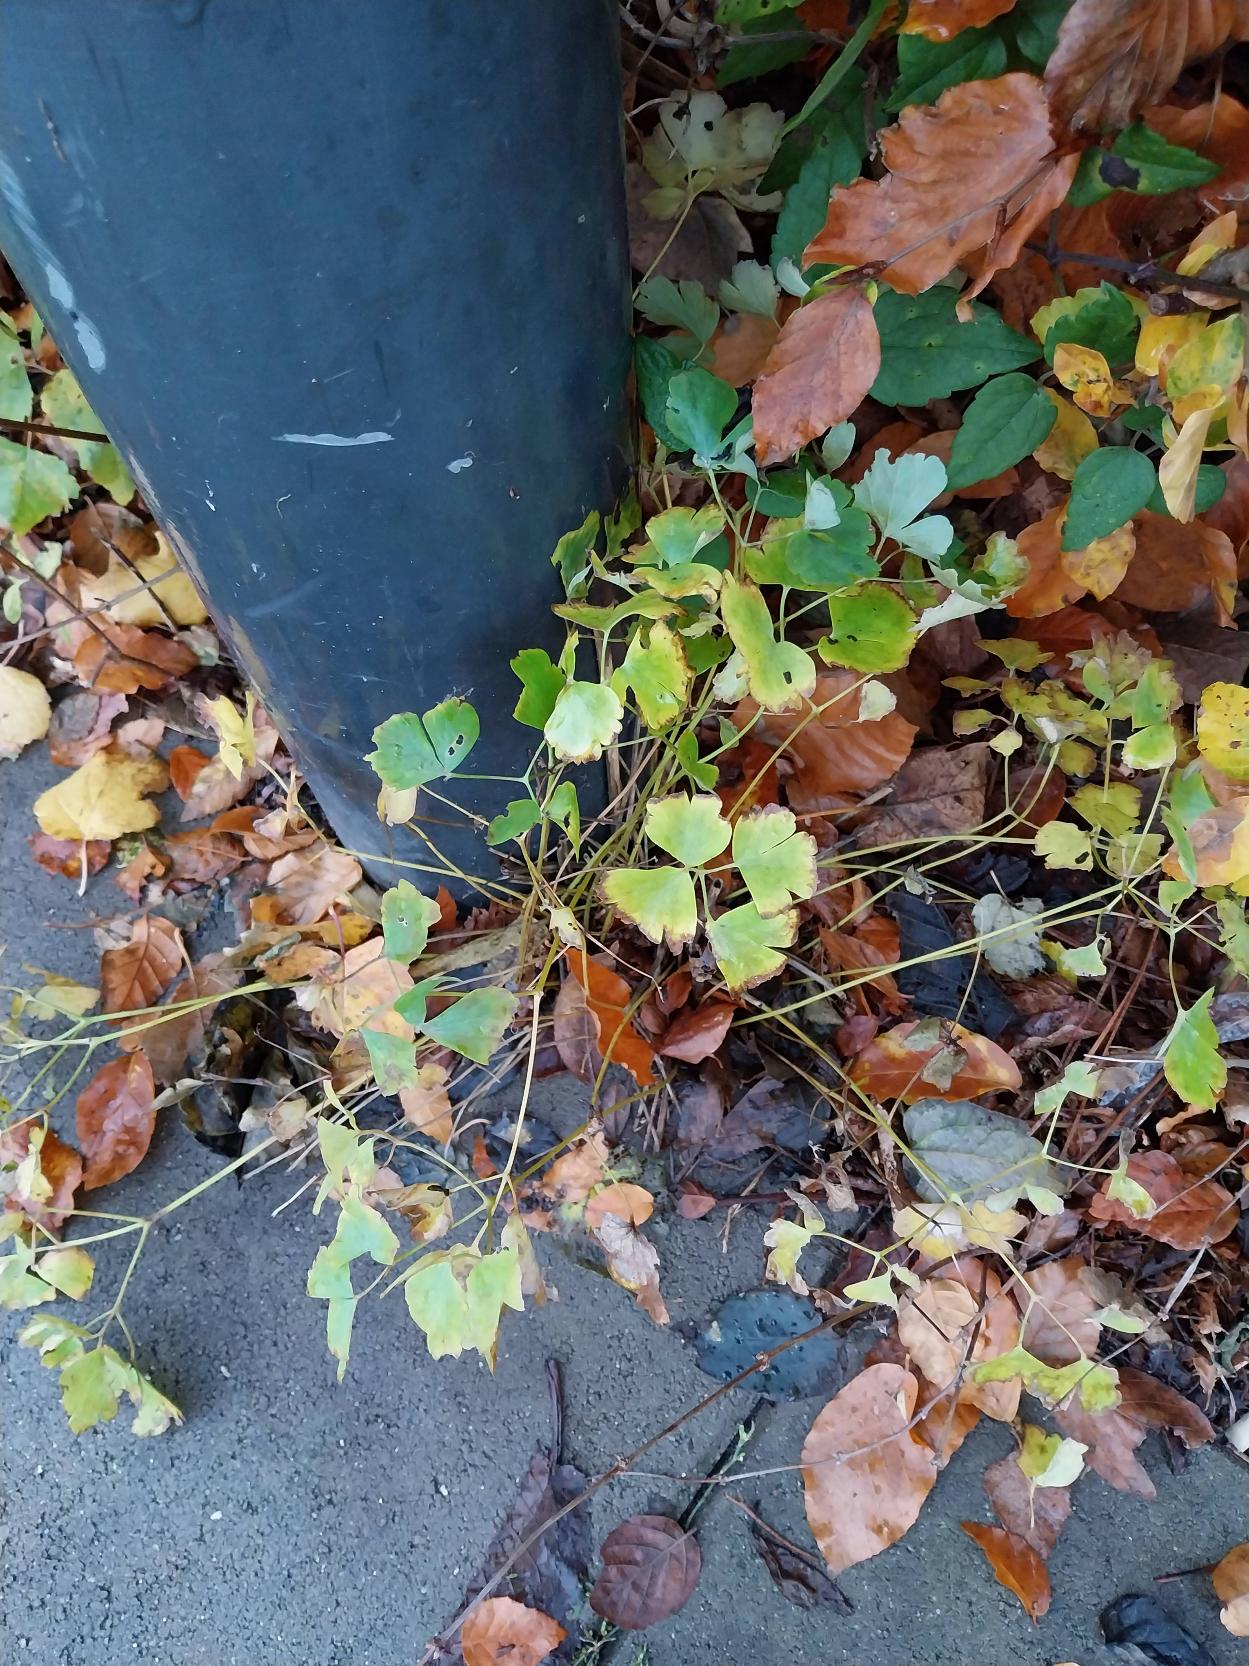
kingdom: Plantae
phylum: Tracheophyta
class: Magnoliopsida
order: Ranunculales
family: Ranunculaceae
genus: Aquilegia
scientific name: Aquilegia vulgaris
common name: Akeleje
